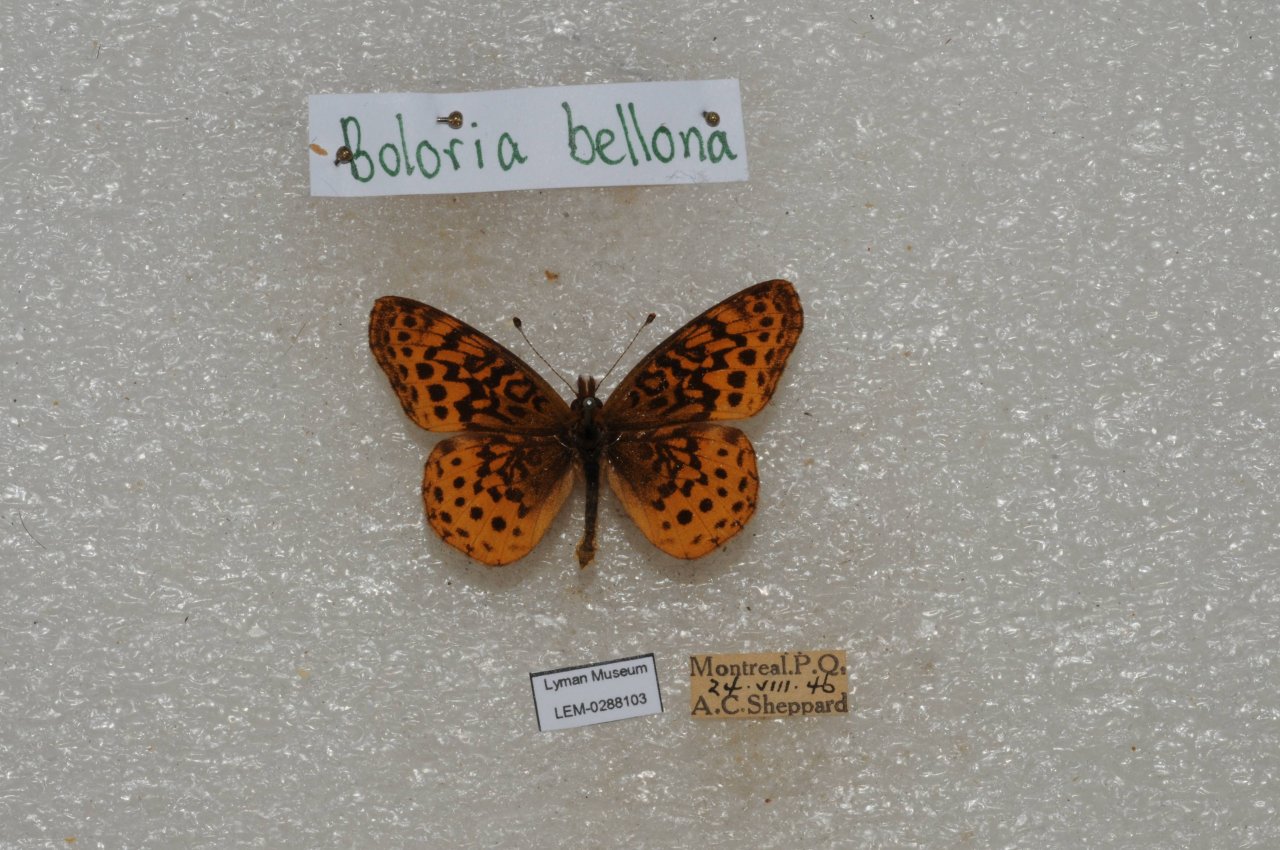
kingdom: Animalia
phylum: Arthropoda
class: Insecta
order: Lepidoptera
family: Nymphalidae
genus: Clossiana
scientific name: Clossiana toddi
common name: Meadow Fritillary
